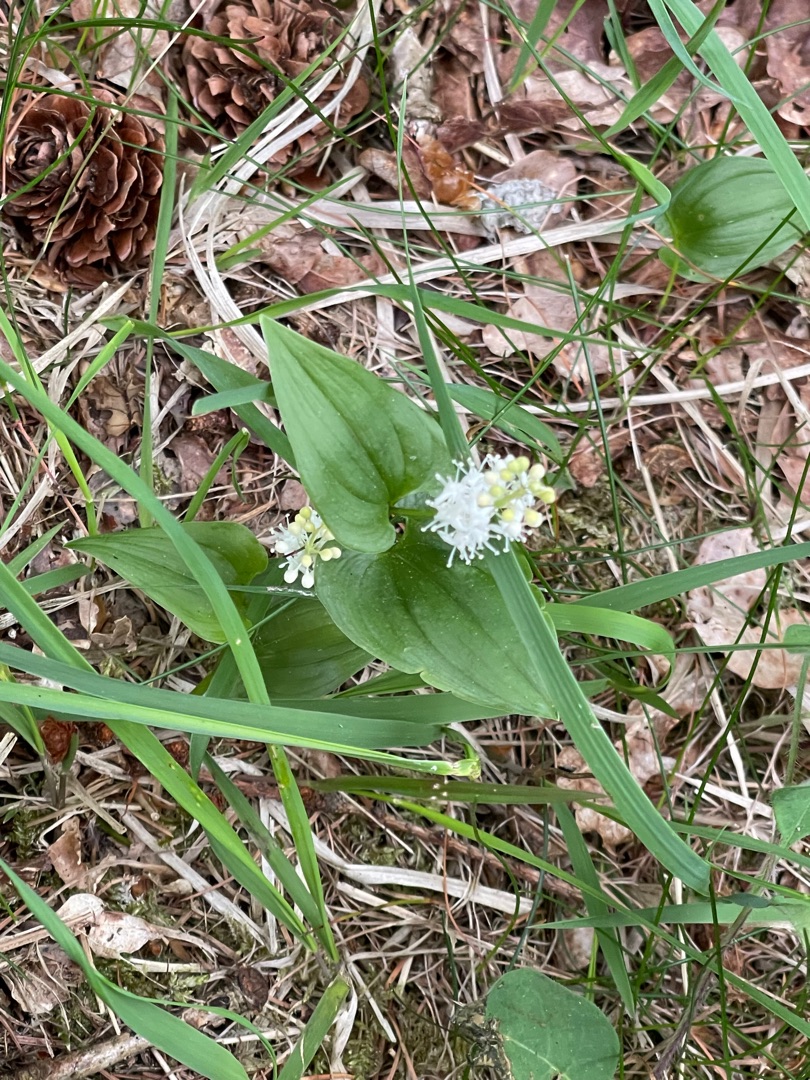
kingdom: Plantae
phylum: Tracheophyta
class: Liliopsida
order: Asparagales
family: Asparagaceae
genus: Maianthemum
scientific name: Maianthemum bifolium
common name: Majblomst
